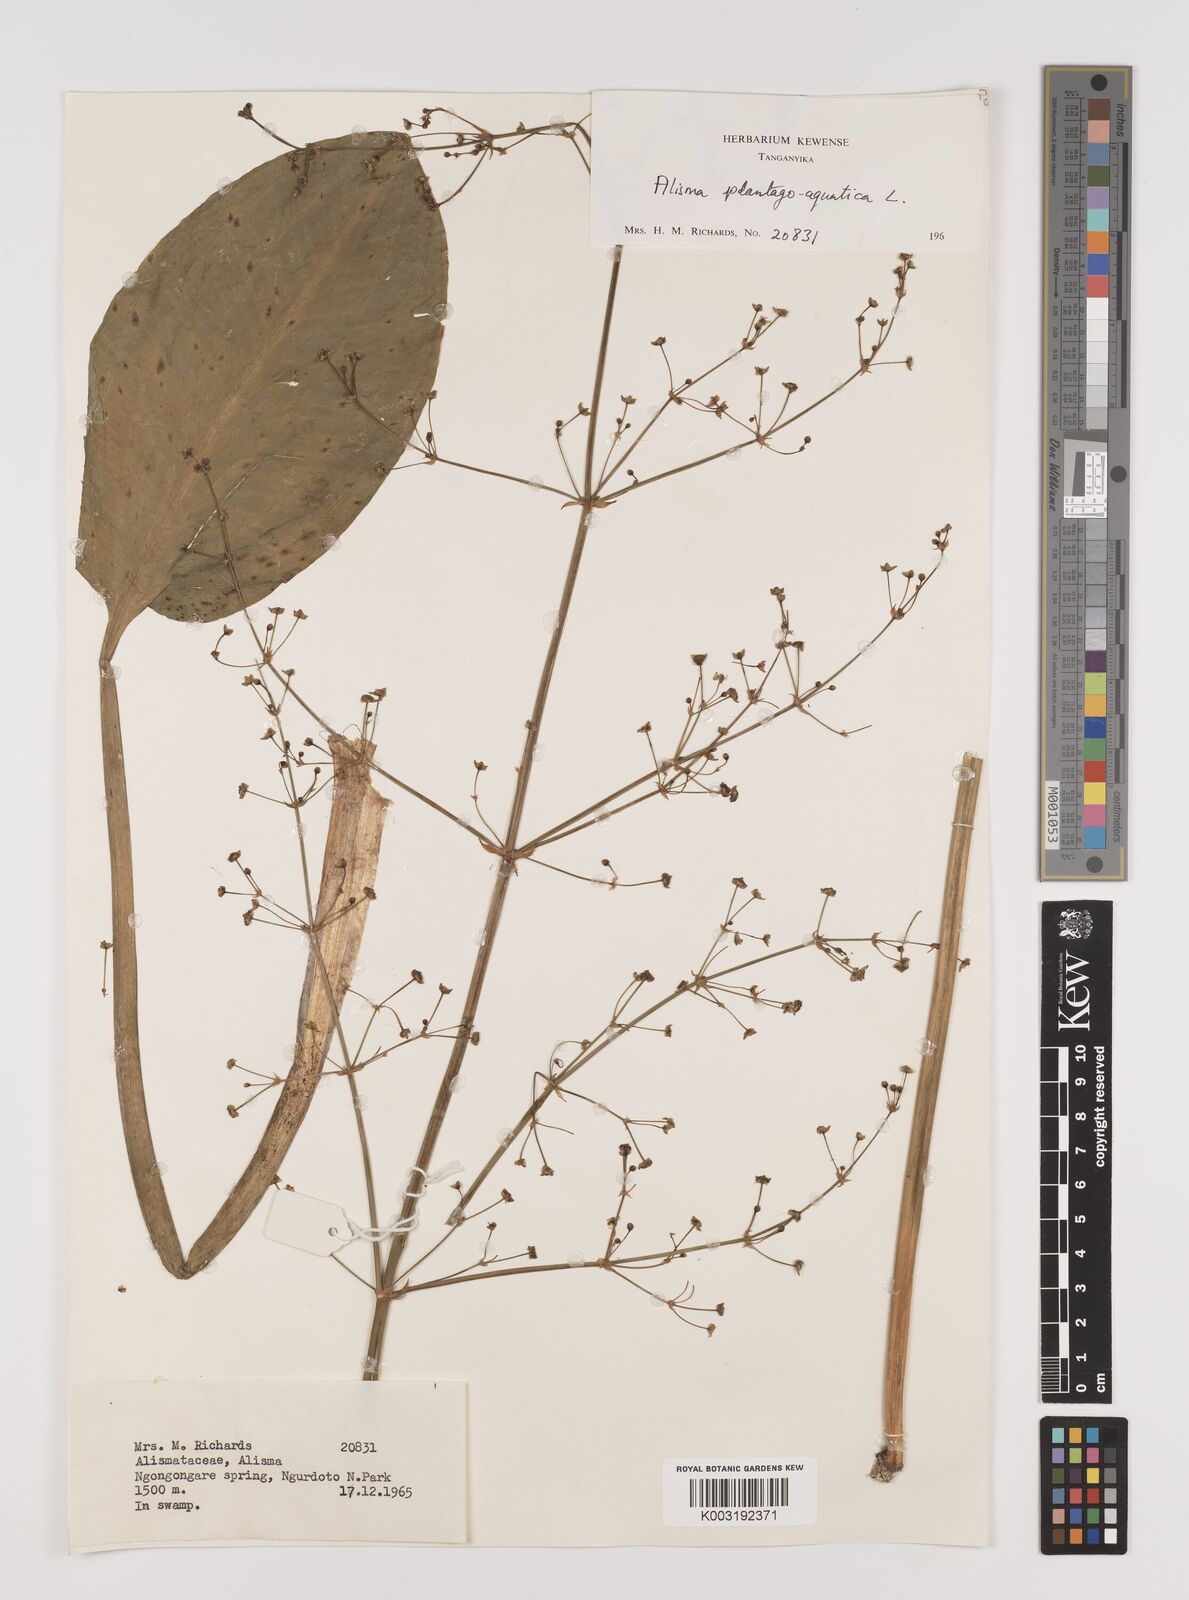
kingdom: Plantae
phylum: Tracheophyta
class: Liliopsida
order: Alismatales
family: Alismataceae
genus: Alisma
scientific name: Alisma plantago-aquatica
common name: Water-plantain
